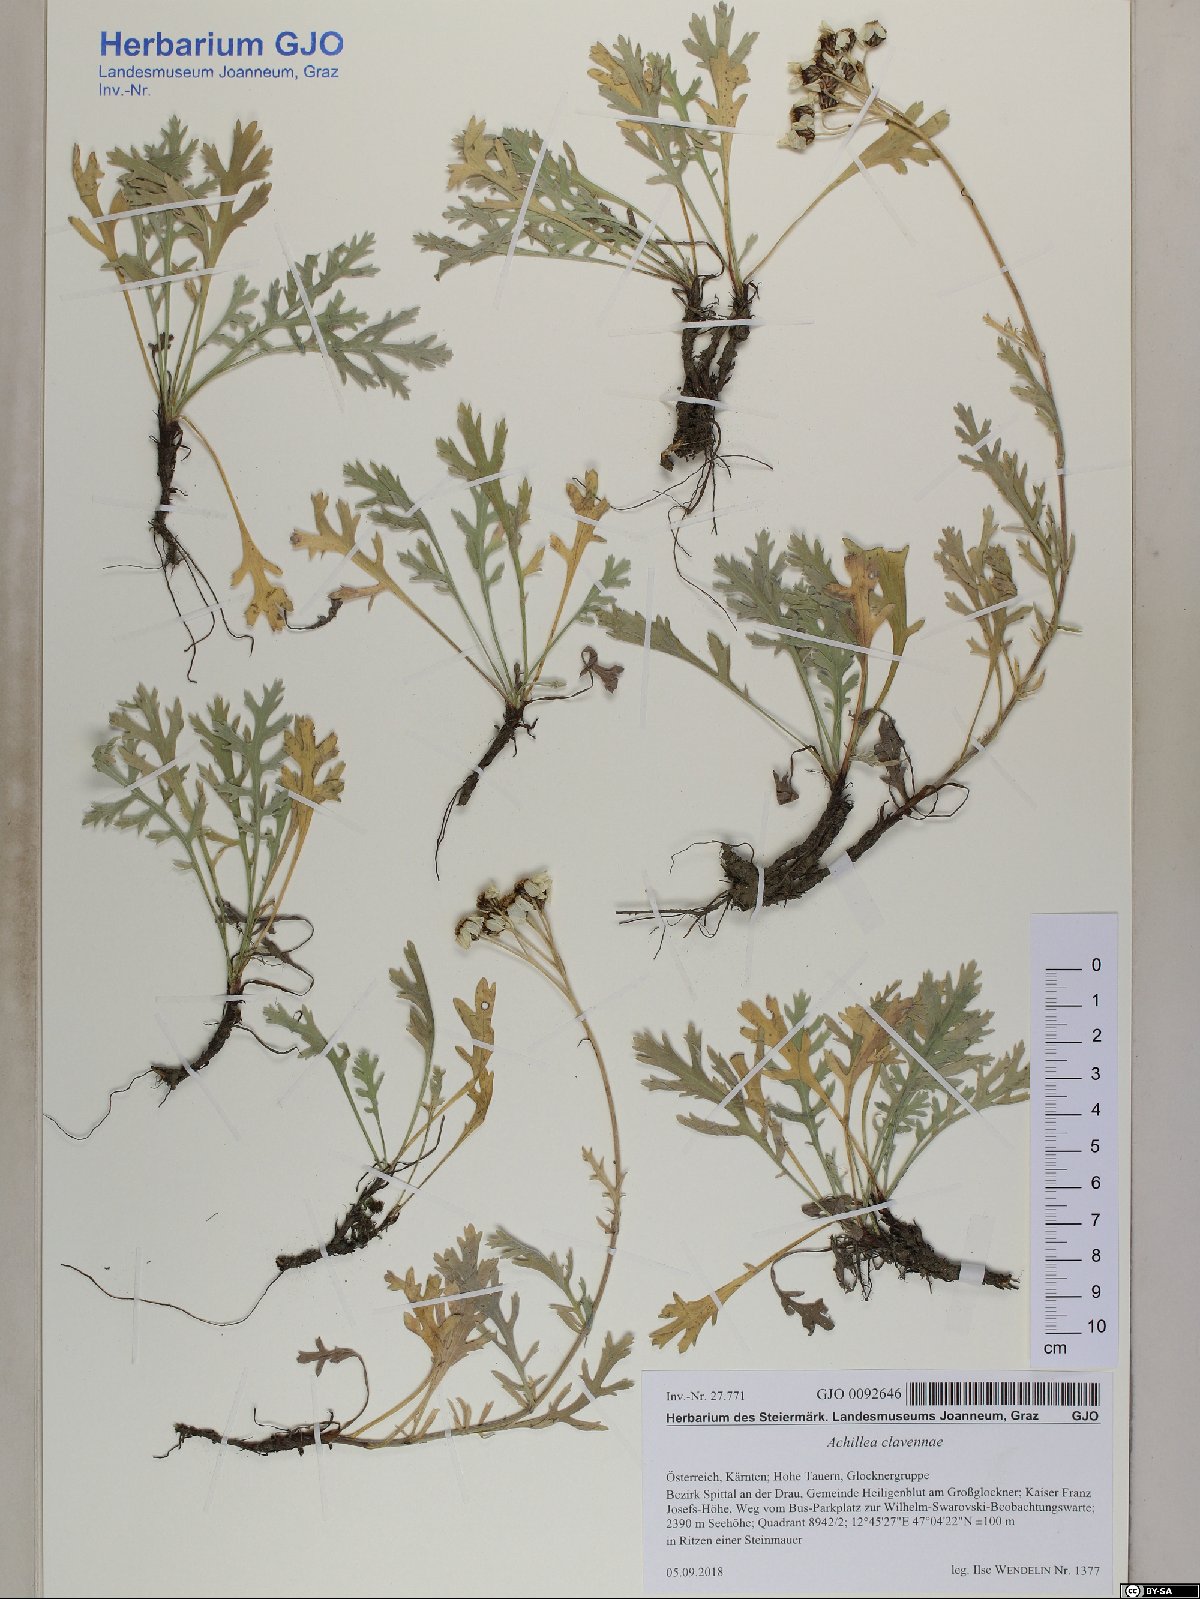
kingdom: Plantae
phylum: Tracheophyta
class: Magnoliopsida
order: Asterales
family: Asteraceae
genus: Achillea
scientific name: Achillea clavennae
